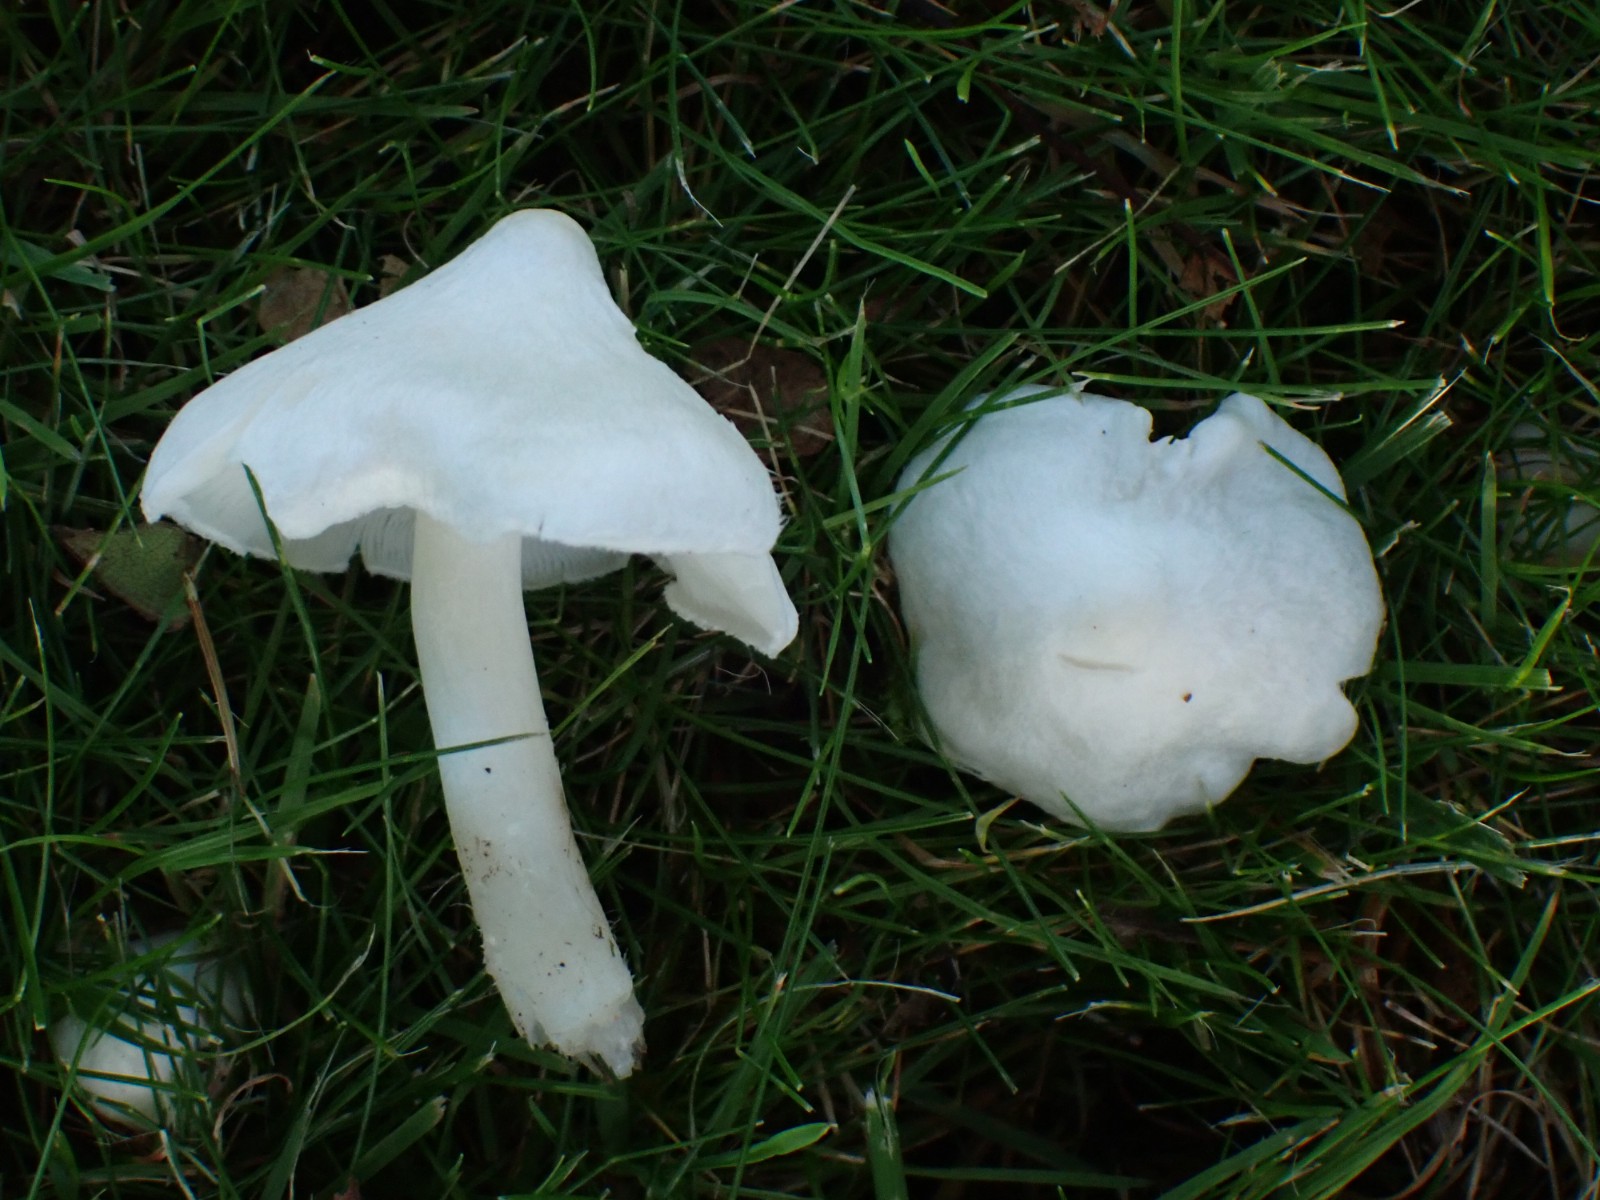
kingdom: Fungi
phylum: Basidiomycota
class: Agaricomycetes
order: Agaricales
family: Tricholomataceae
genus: Tricholoma
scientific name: Tricholoma argyraceum
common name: spids ridderhat
